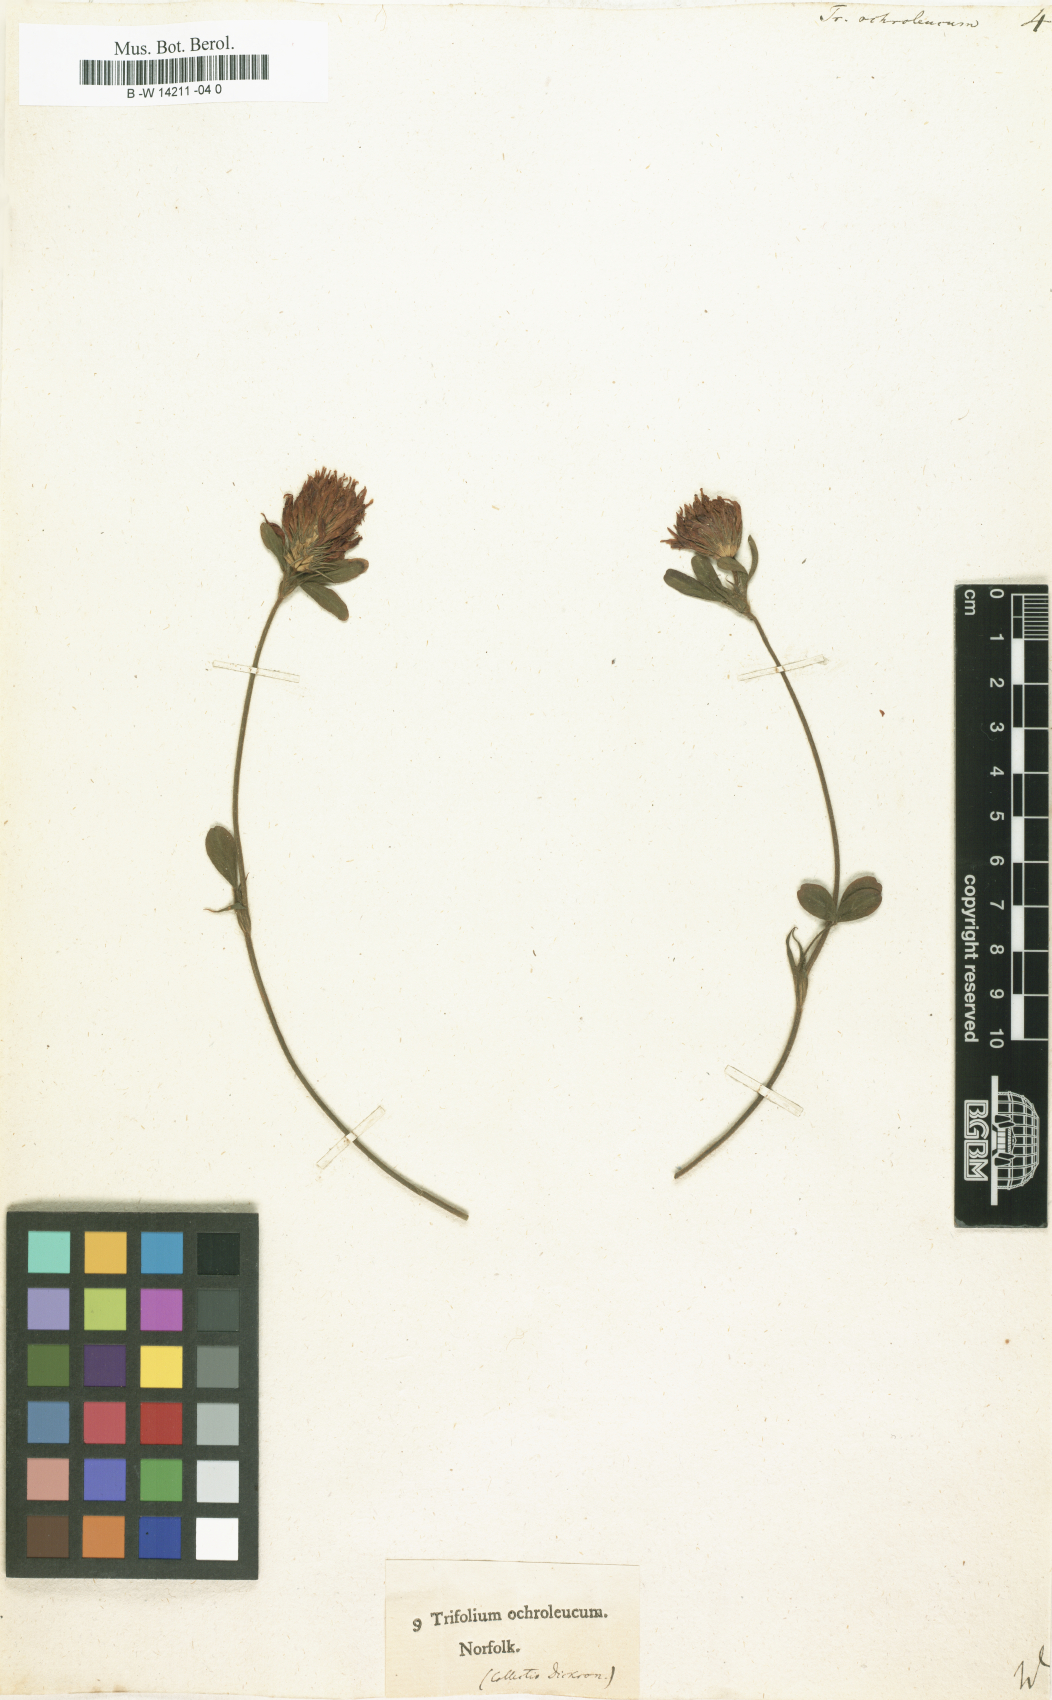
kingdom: Plantae
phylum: Tracheophyta
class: Magnoliopsida
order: Fabales
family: Fabaceae
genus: Trifolium
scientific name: Trifolium
